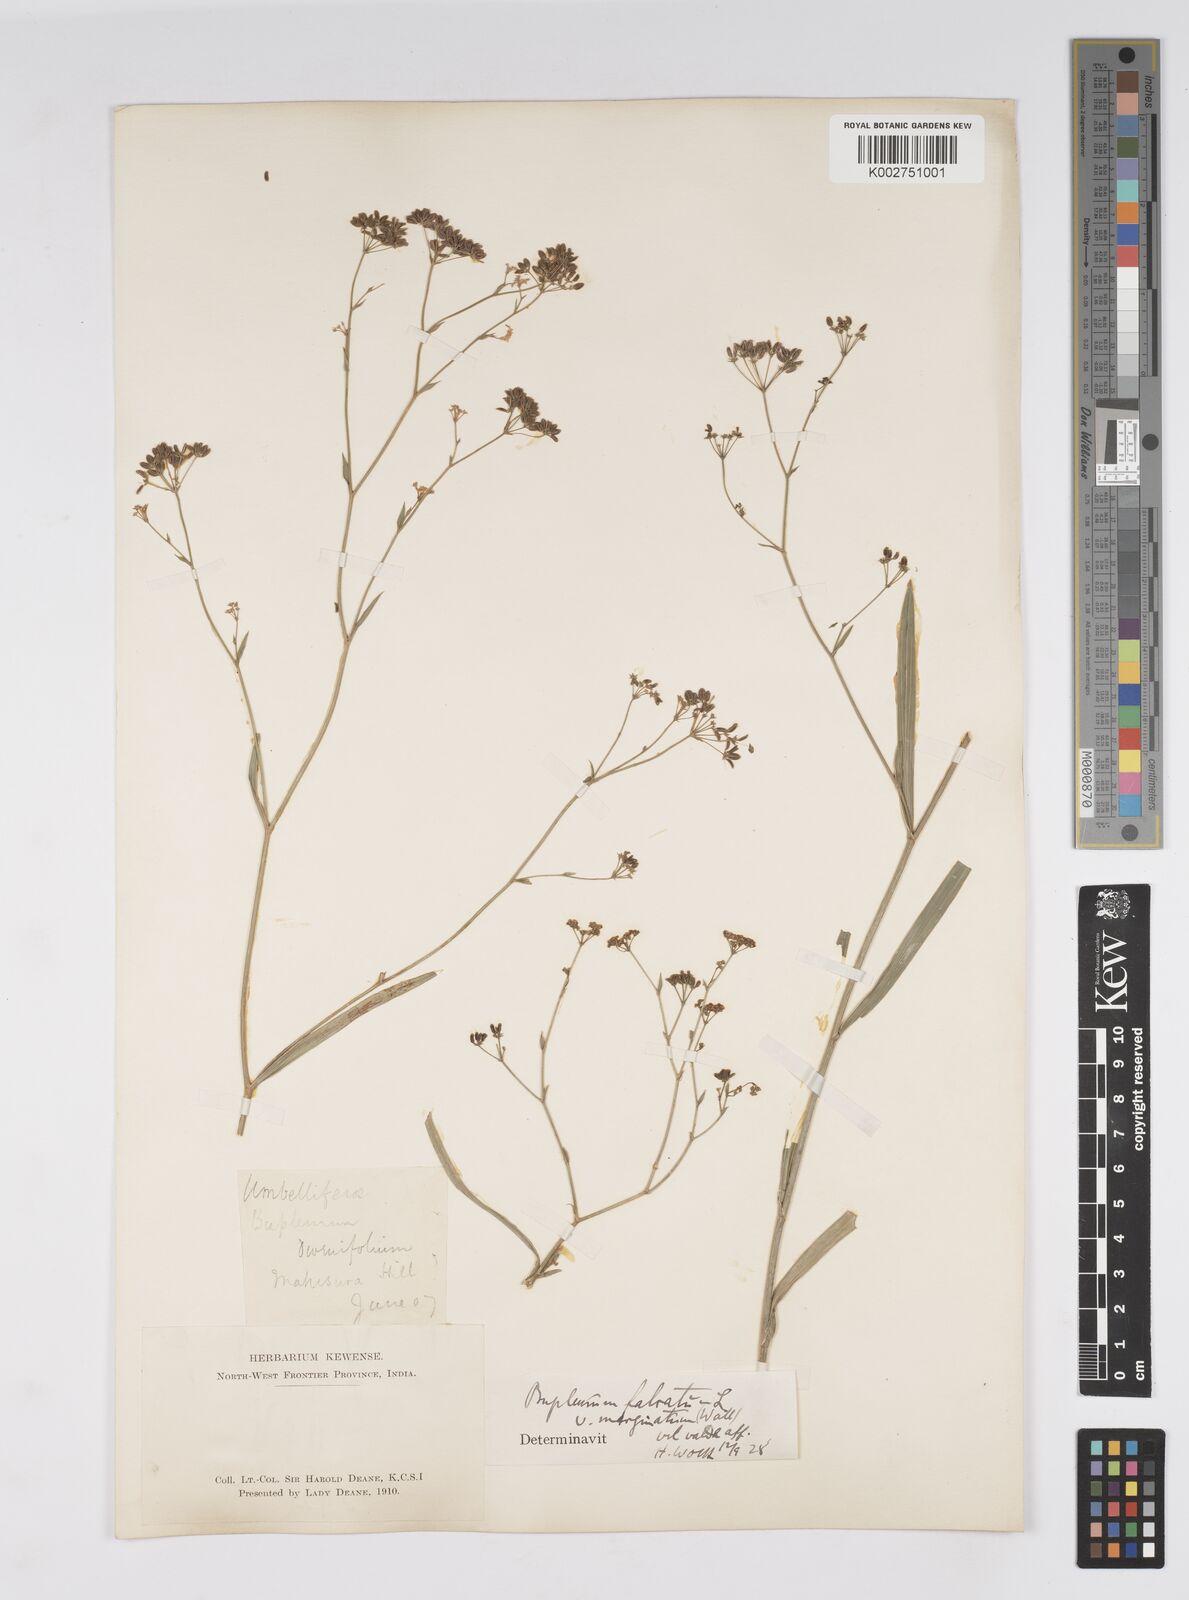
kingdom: Plantae
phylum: Tracheophyta
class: Magnoliopsida
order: Apiales
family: Apiaceae
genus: Bupleurum
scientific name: Bupleurum falcatum
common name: Sickle-leaved hare's-ear
